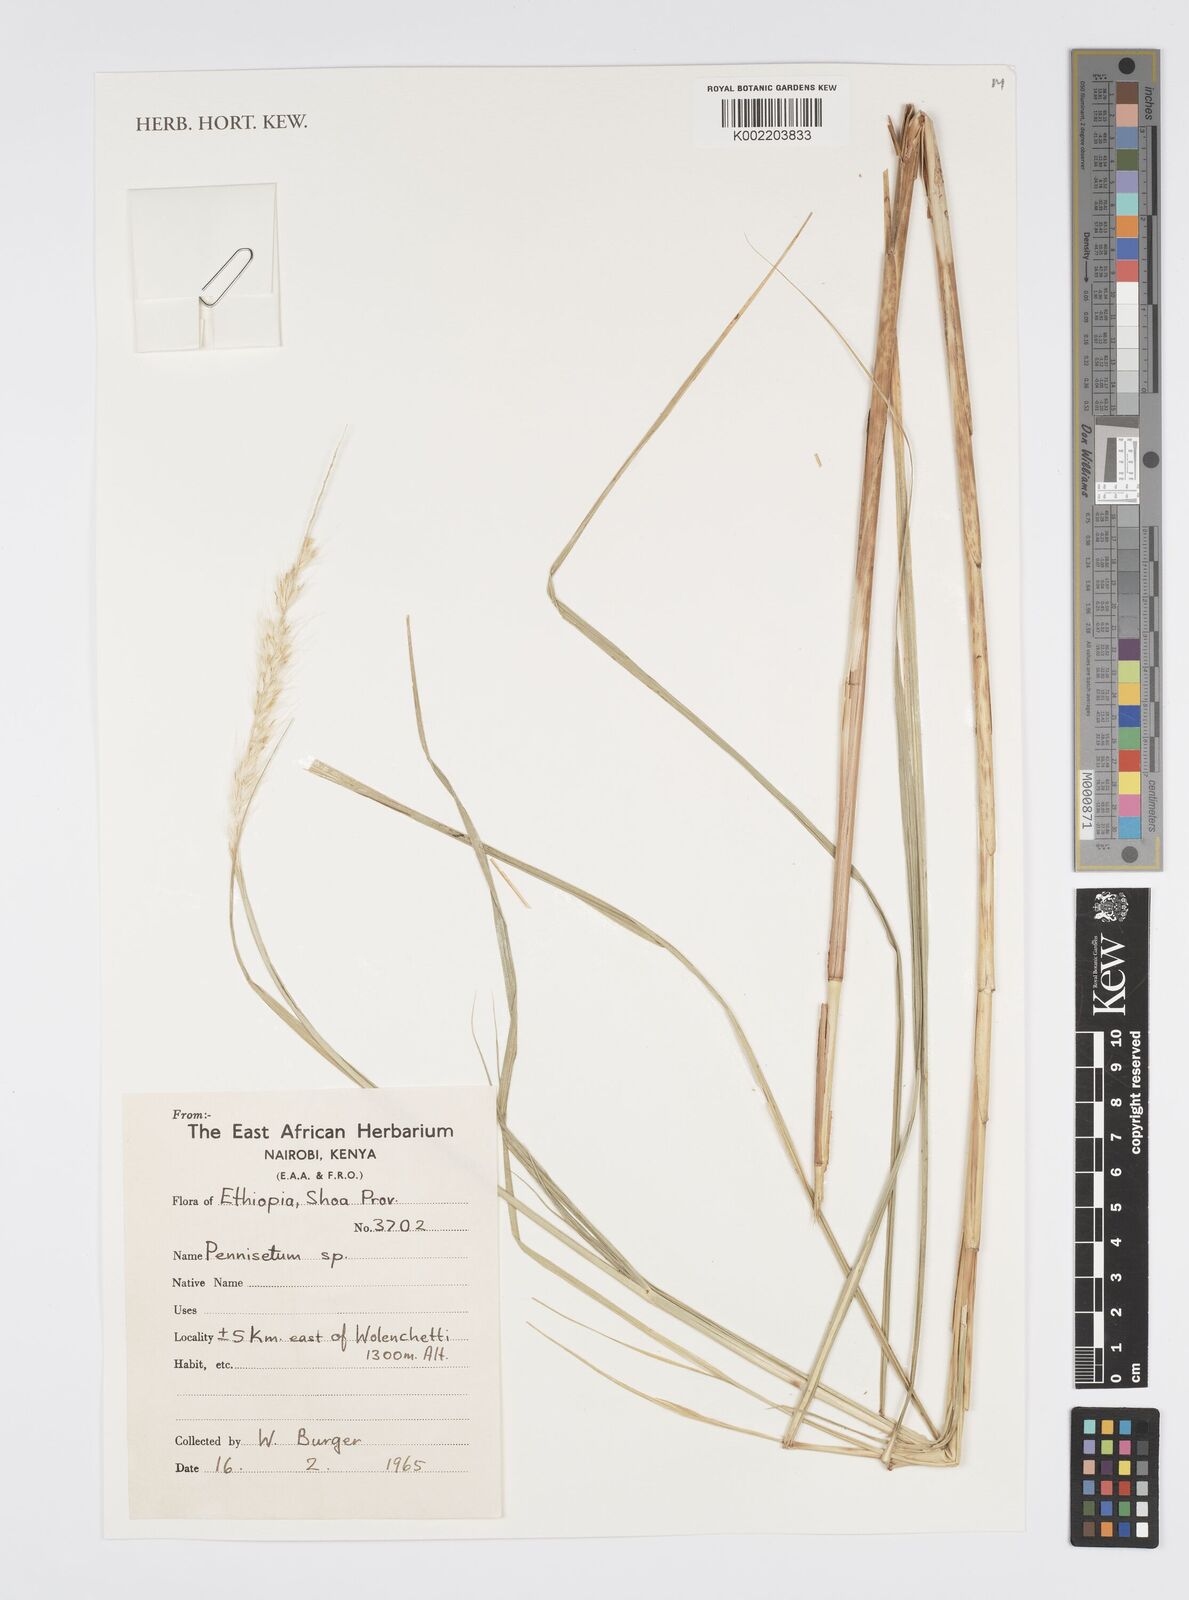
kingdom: Plantae
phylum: Tracheophyta
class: Liliopsida
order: Poales
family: Poaceae
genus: Cenchrus
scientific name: Cenchrus Pennisetum spec
